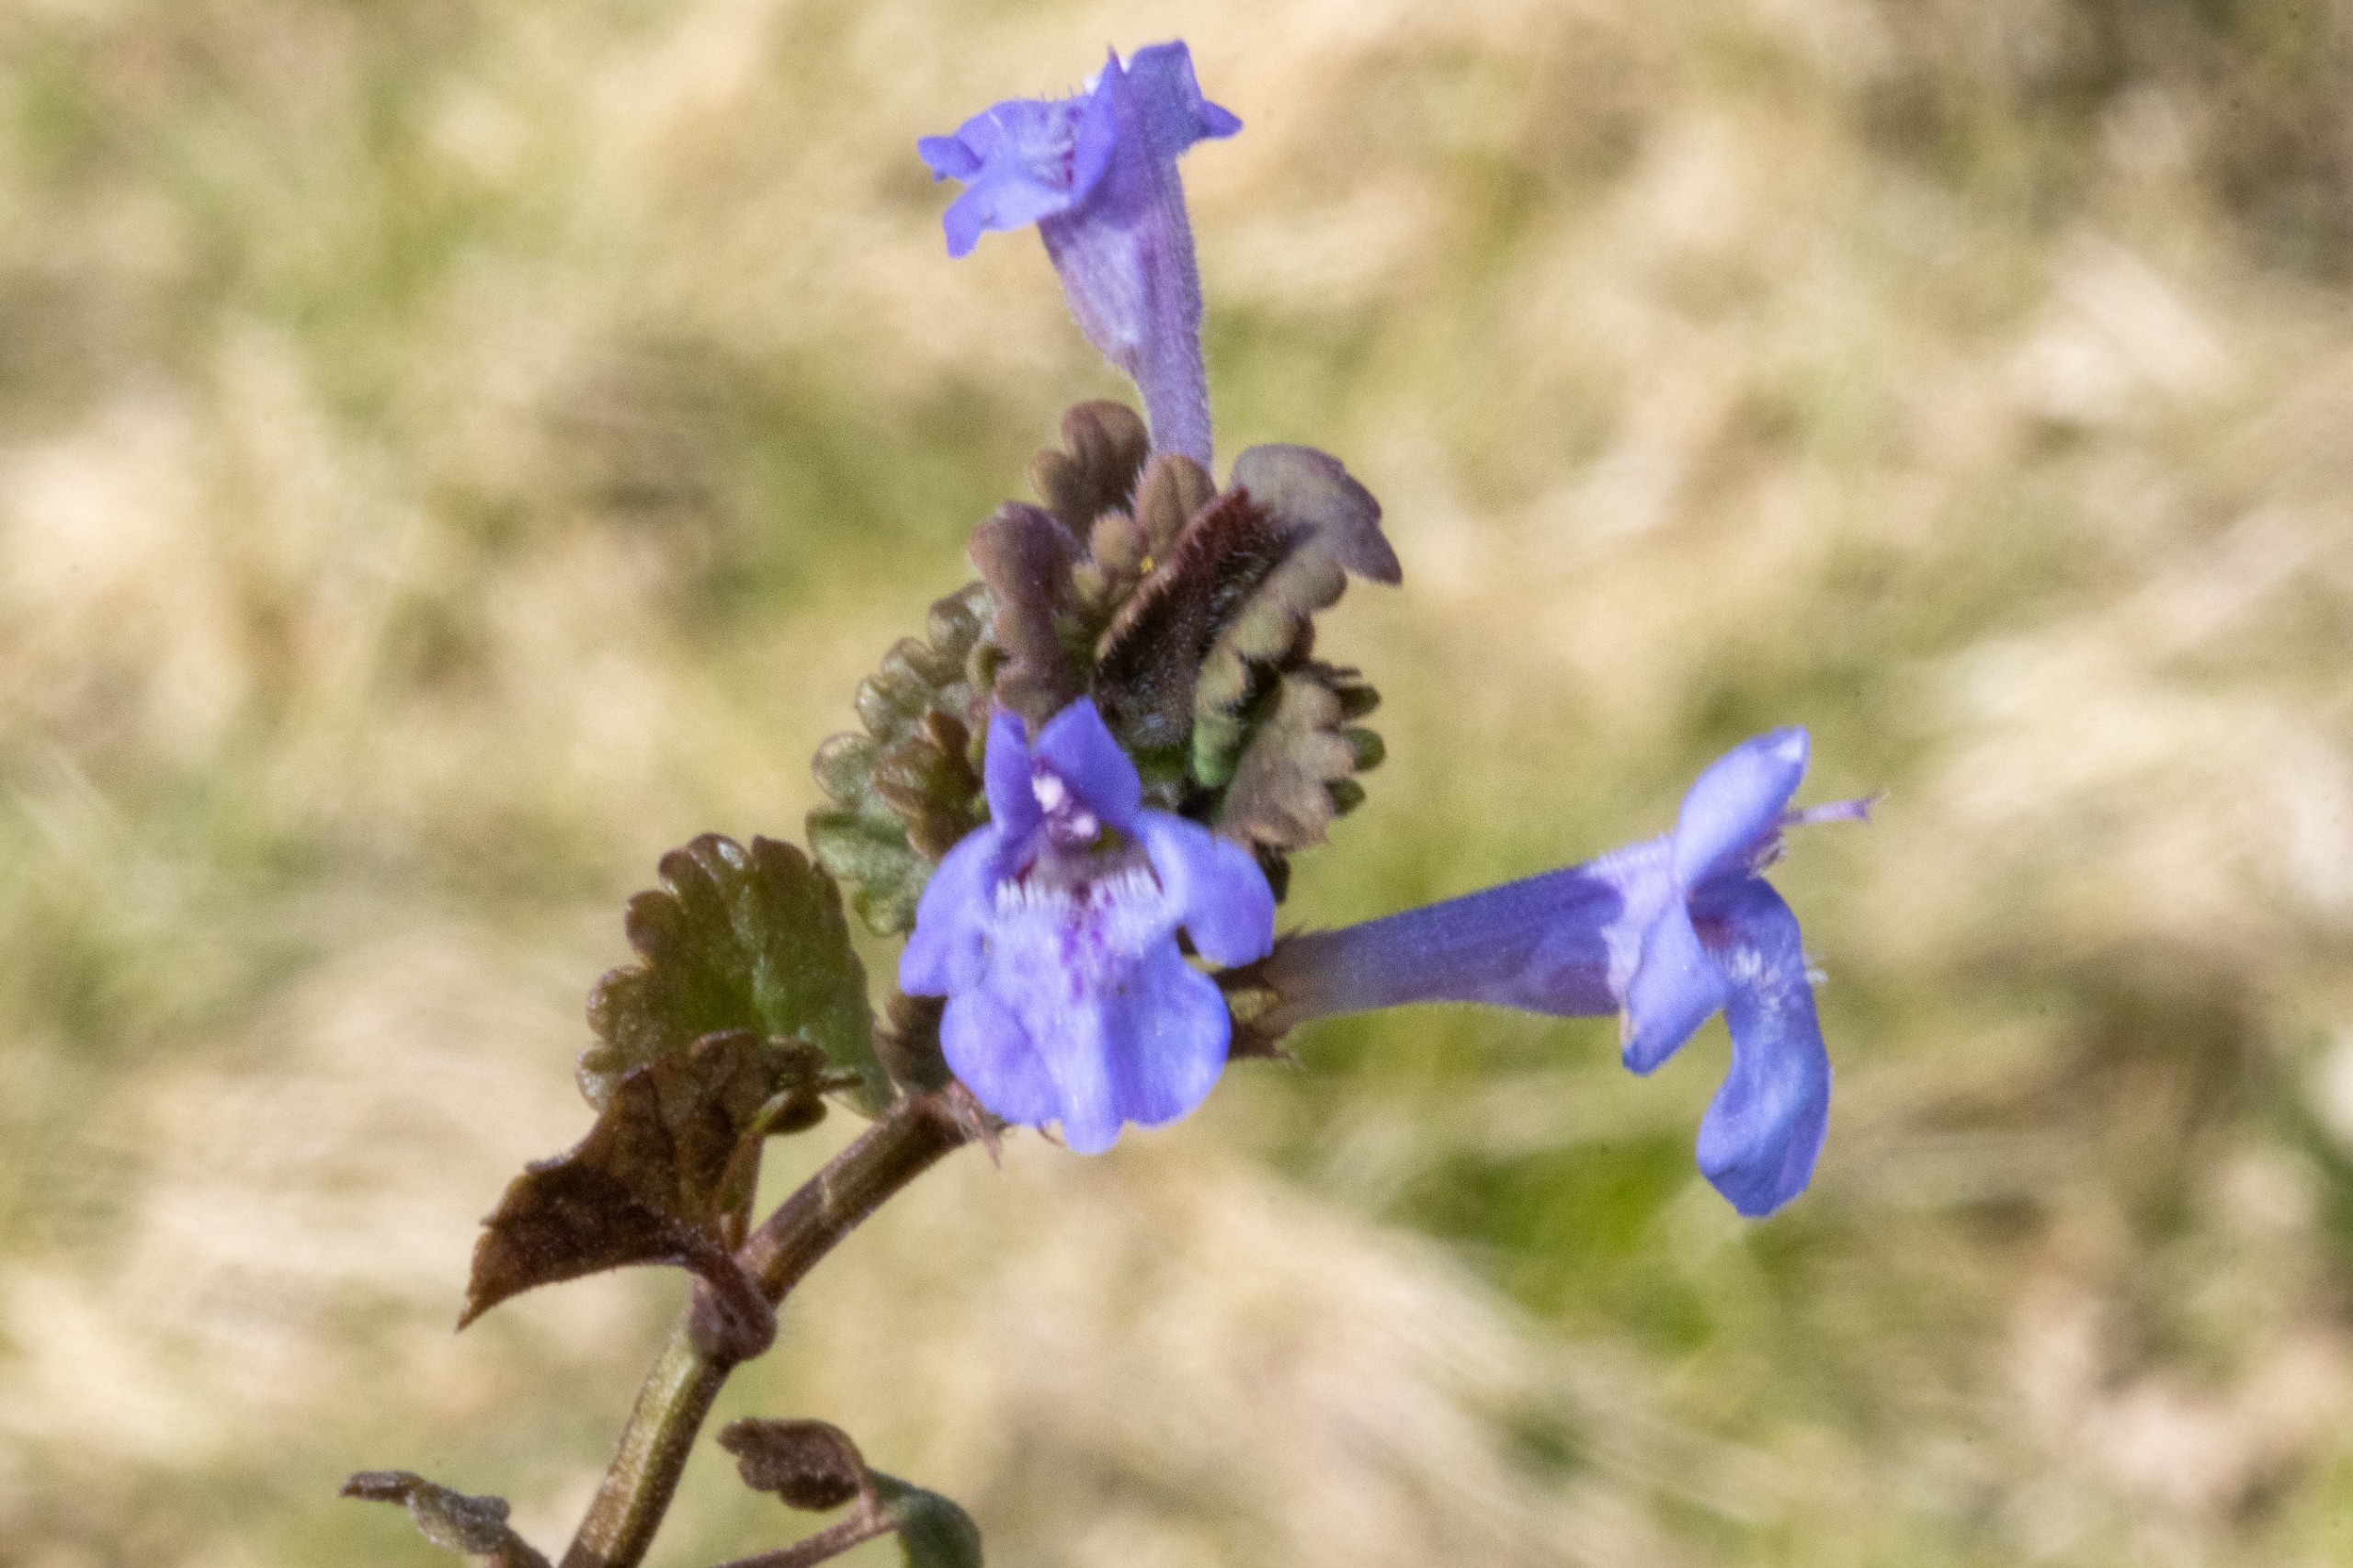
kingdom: Plantae
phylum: Tracheophyta
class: Magnoliopsida
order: Lamiales
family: Lamiaceae
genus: Glechoma
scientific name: Glechoma hederacea
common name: Korsknap
